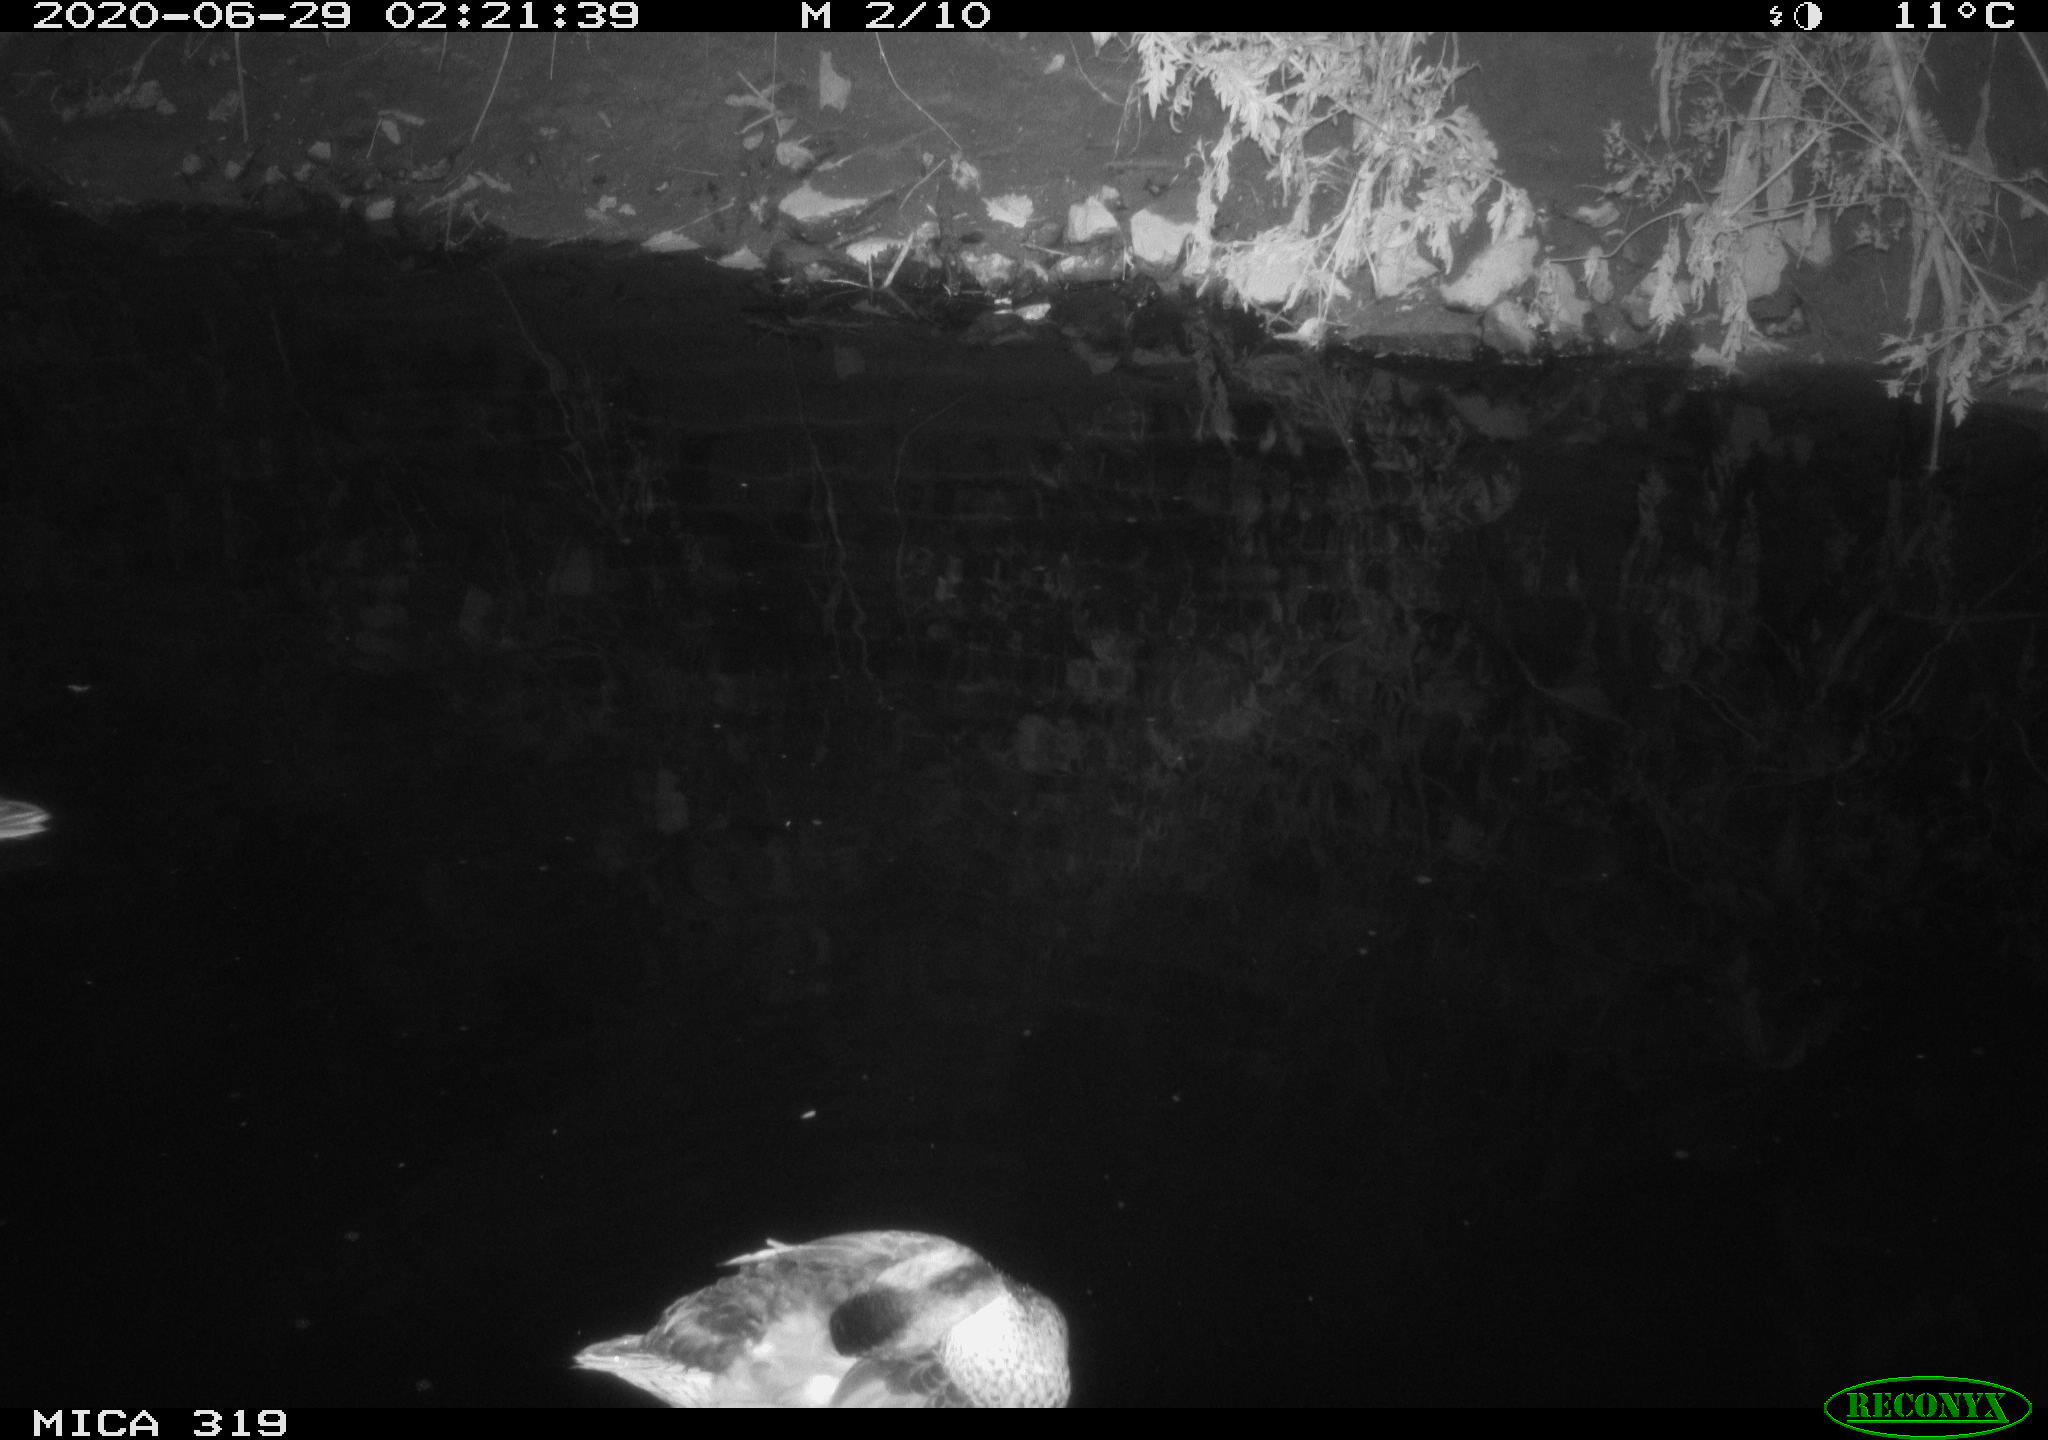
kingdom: Animalia
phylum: Chordata
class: Aves
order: Anseriformes
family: Anatidae
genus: Anas
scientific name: Anas platyrhynchos
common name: Mallard
